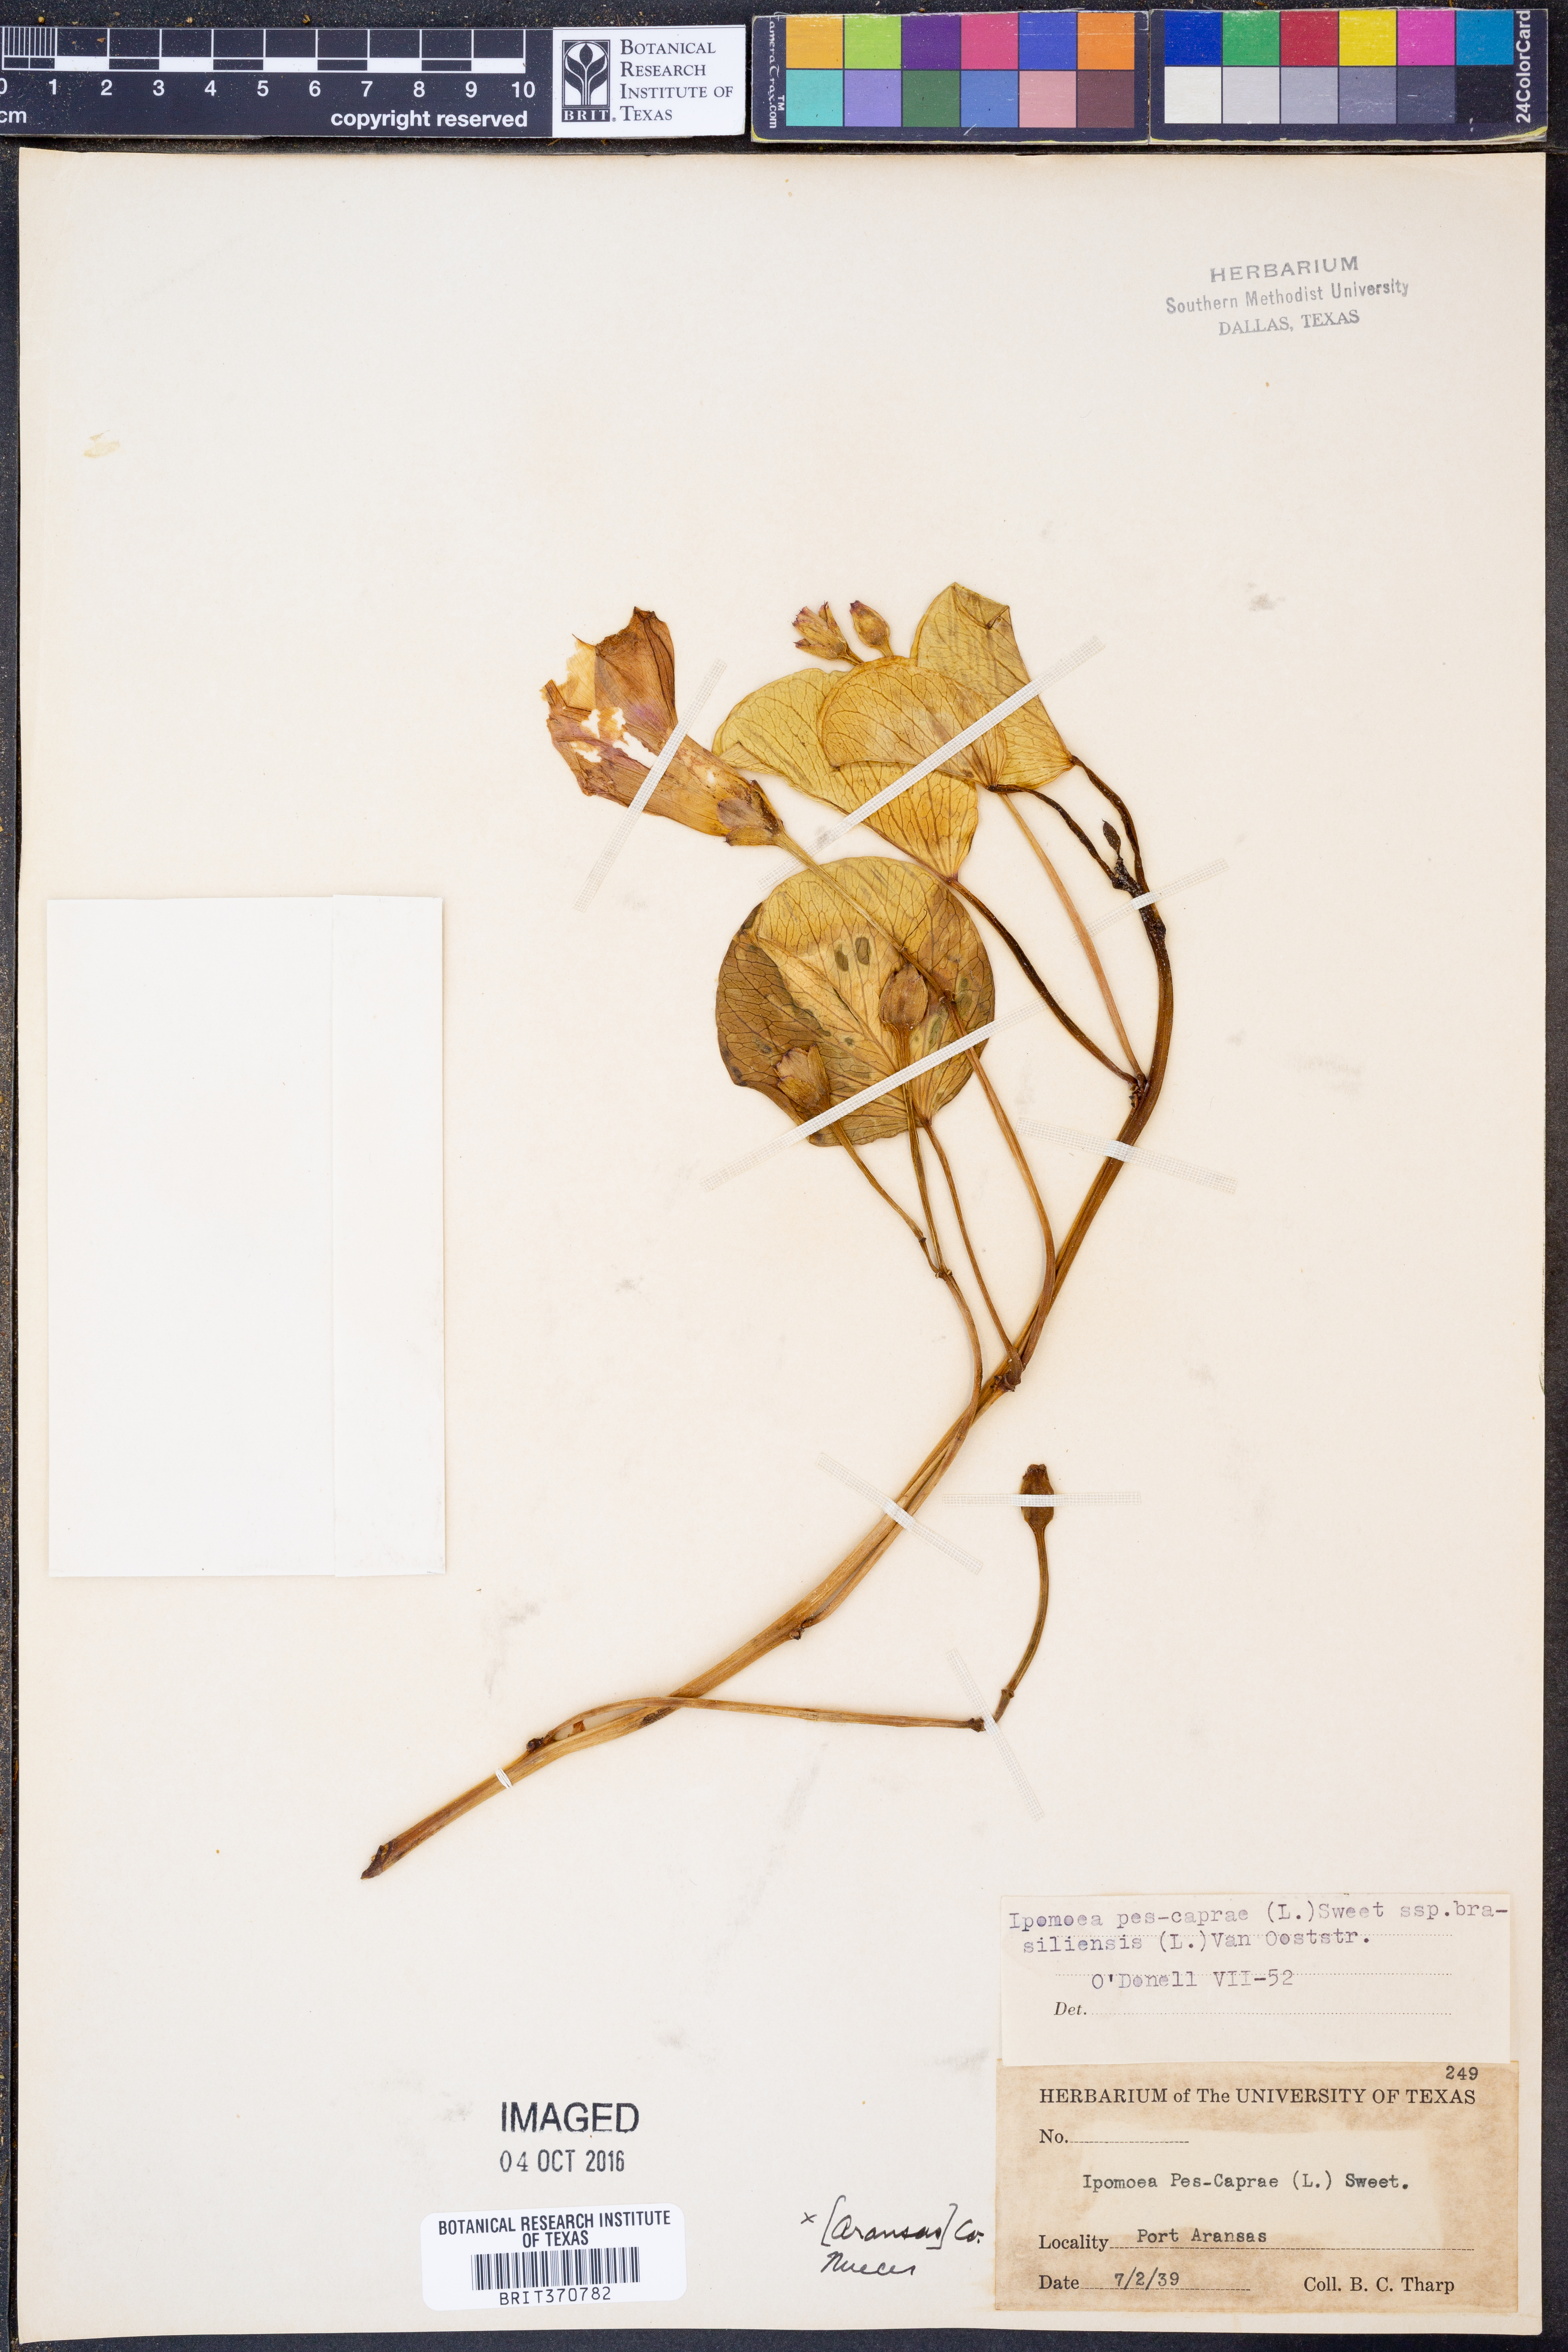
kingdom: Plantae
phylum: Tracheophyta
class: Magnoliopsida
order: Solanales
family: Convolvulaceae
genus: Ipomoea
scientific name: Ipomoea pes-caprae
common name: Beach morning glory
